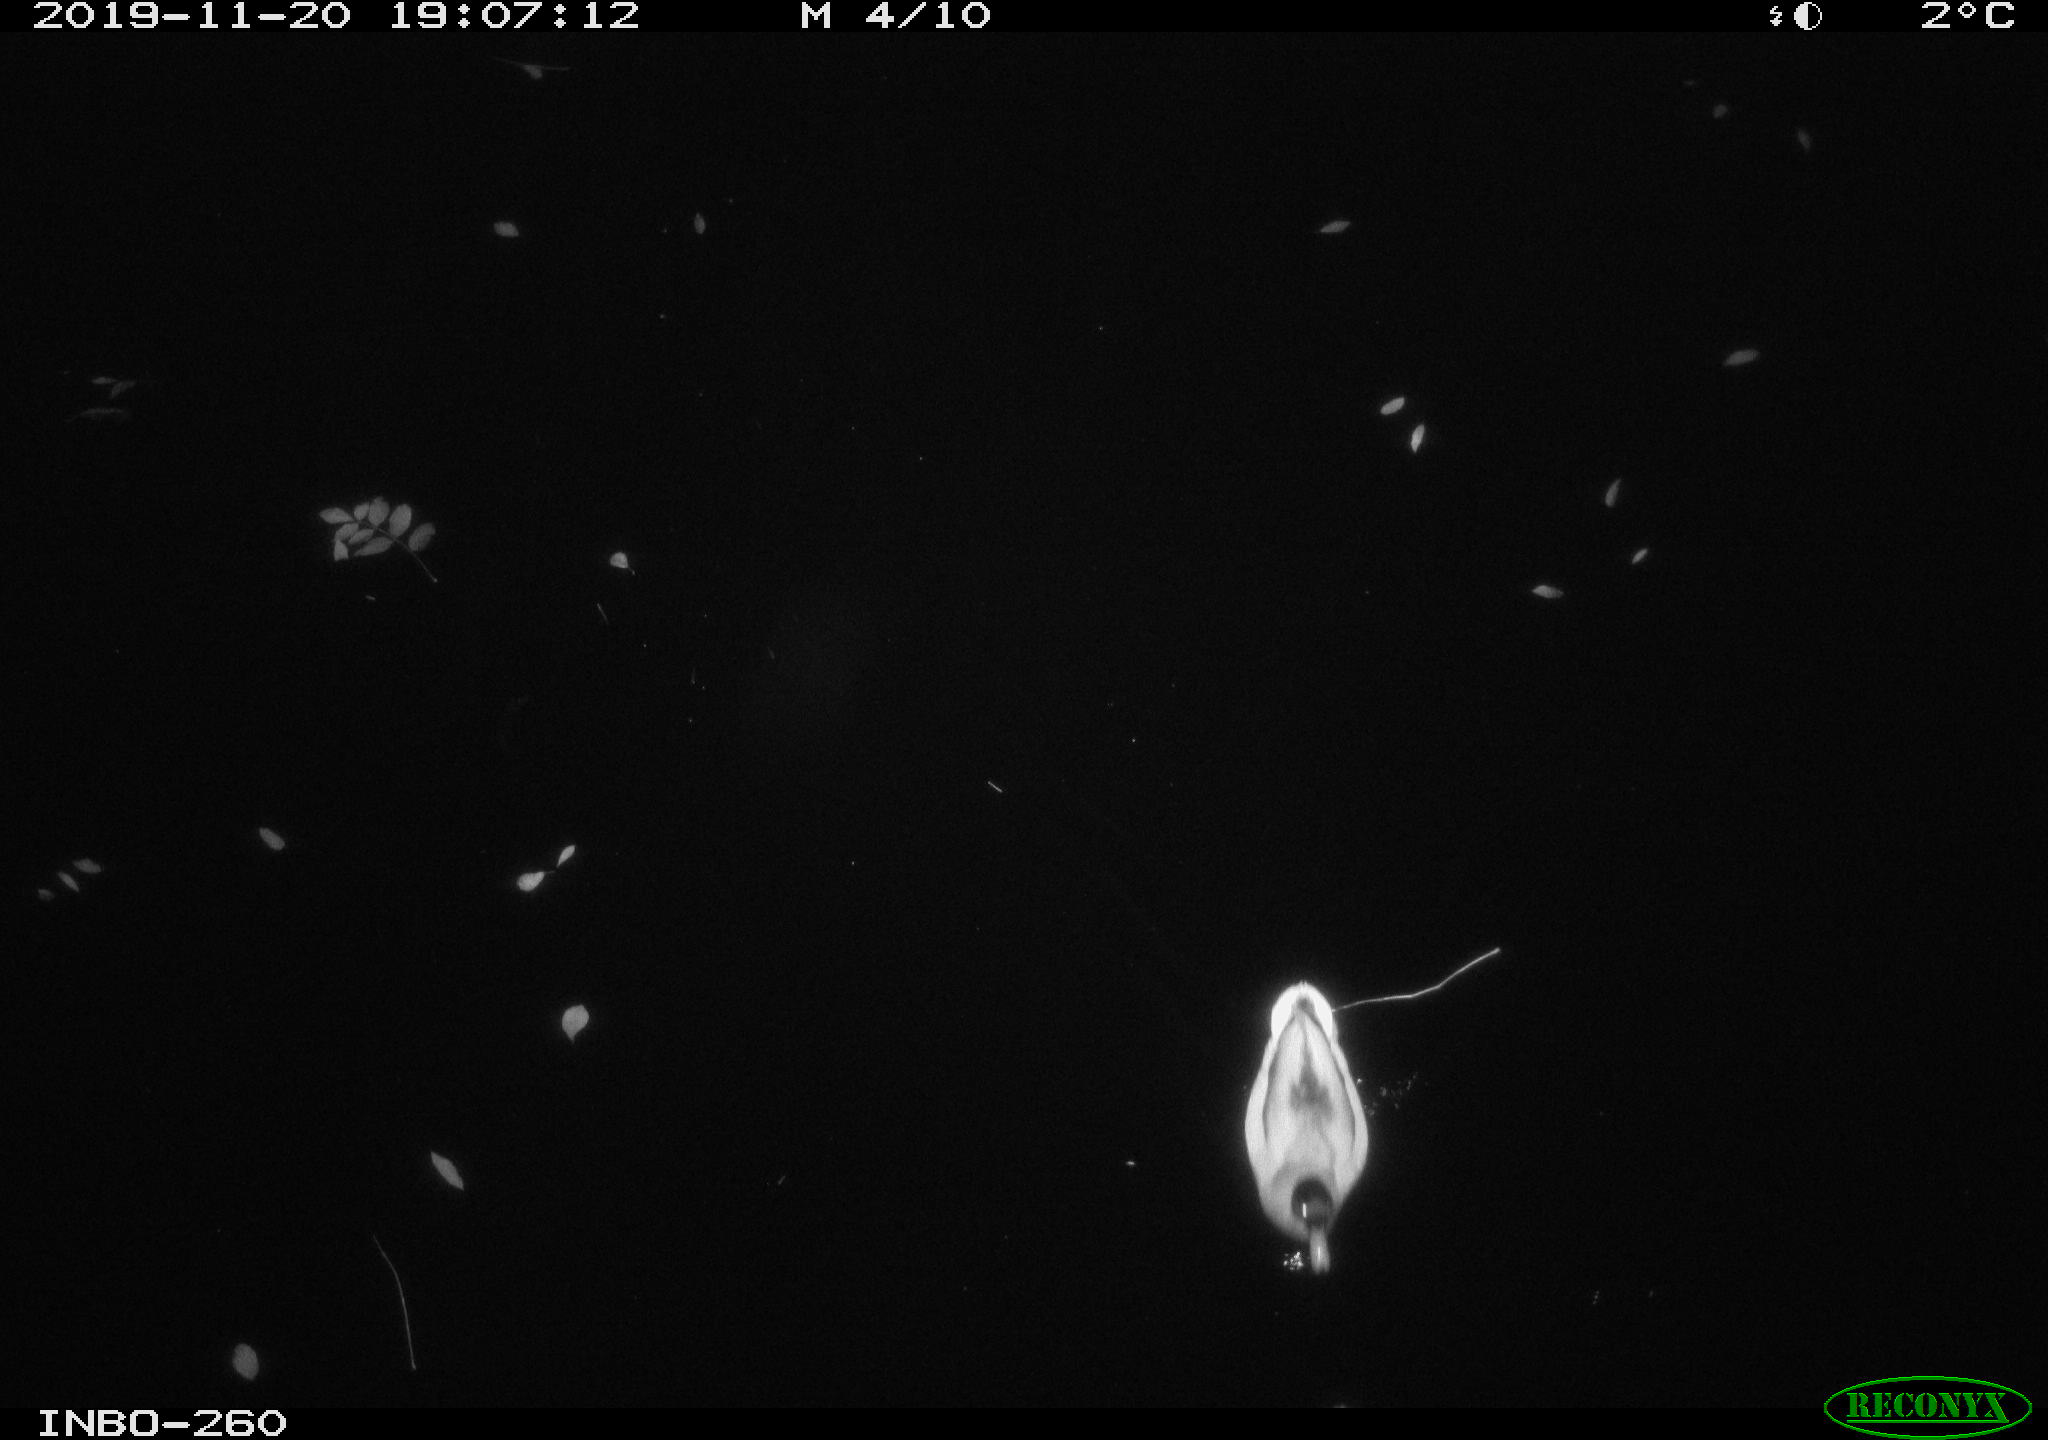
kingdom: Animalia
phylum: Chordata
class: Aves
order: Anseriformes
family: Anatidae
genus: Anas
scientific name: Anas platyrhynchos
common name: Mallard
